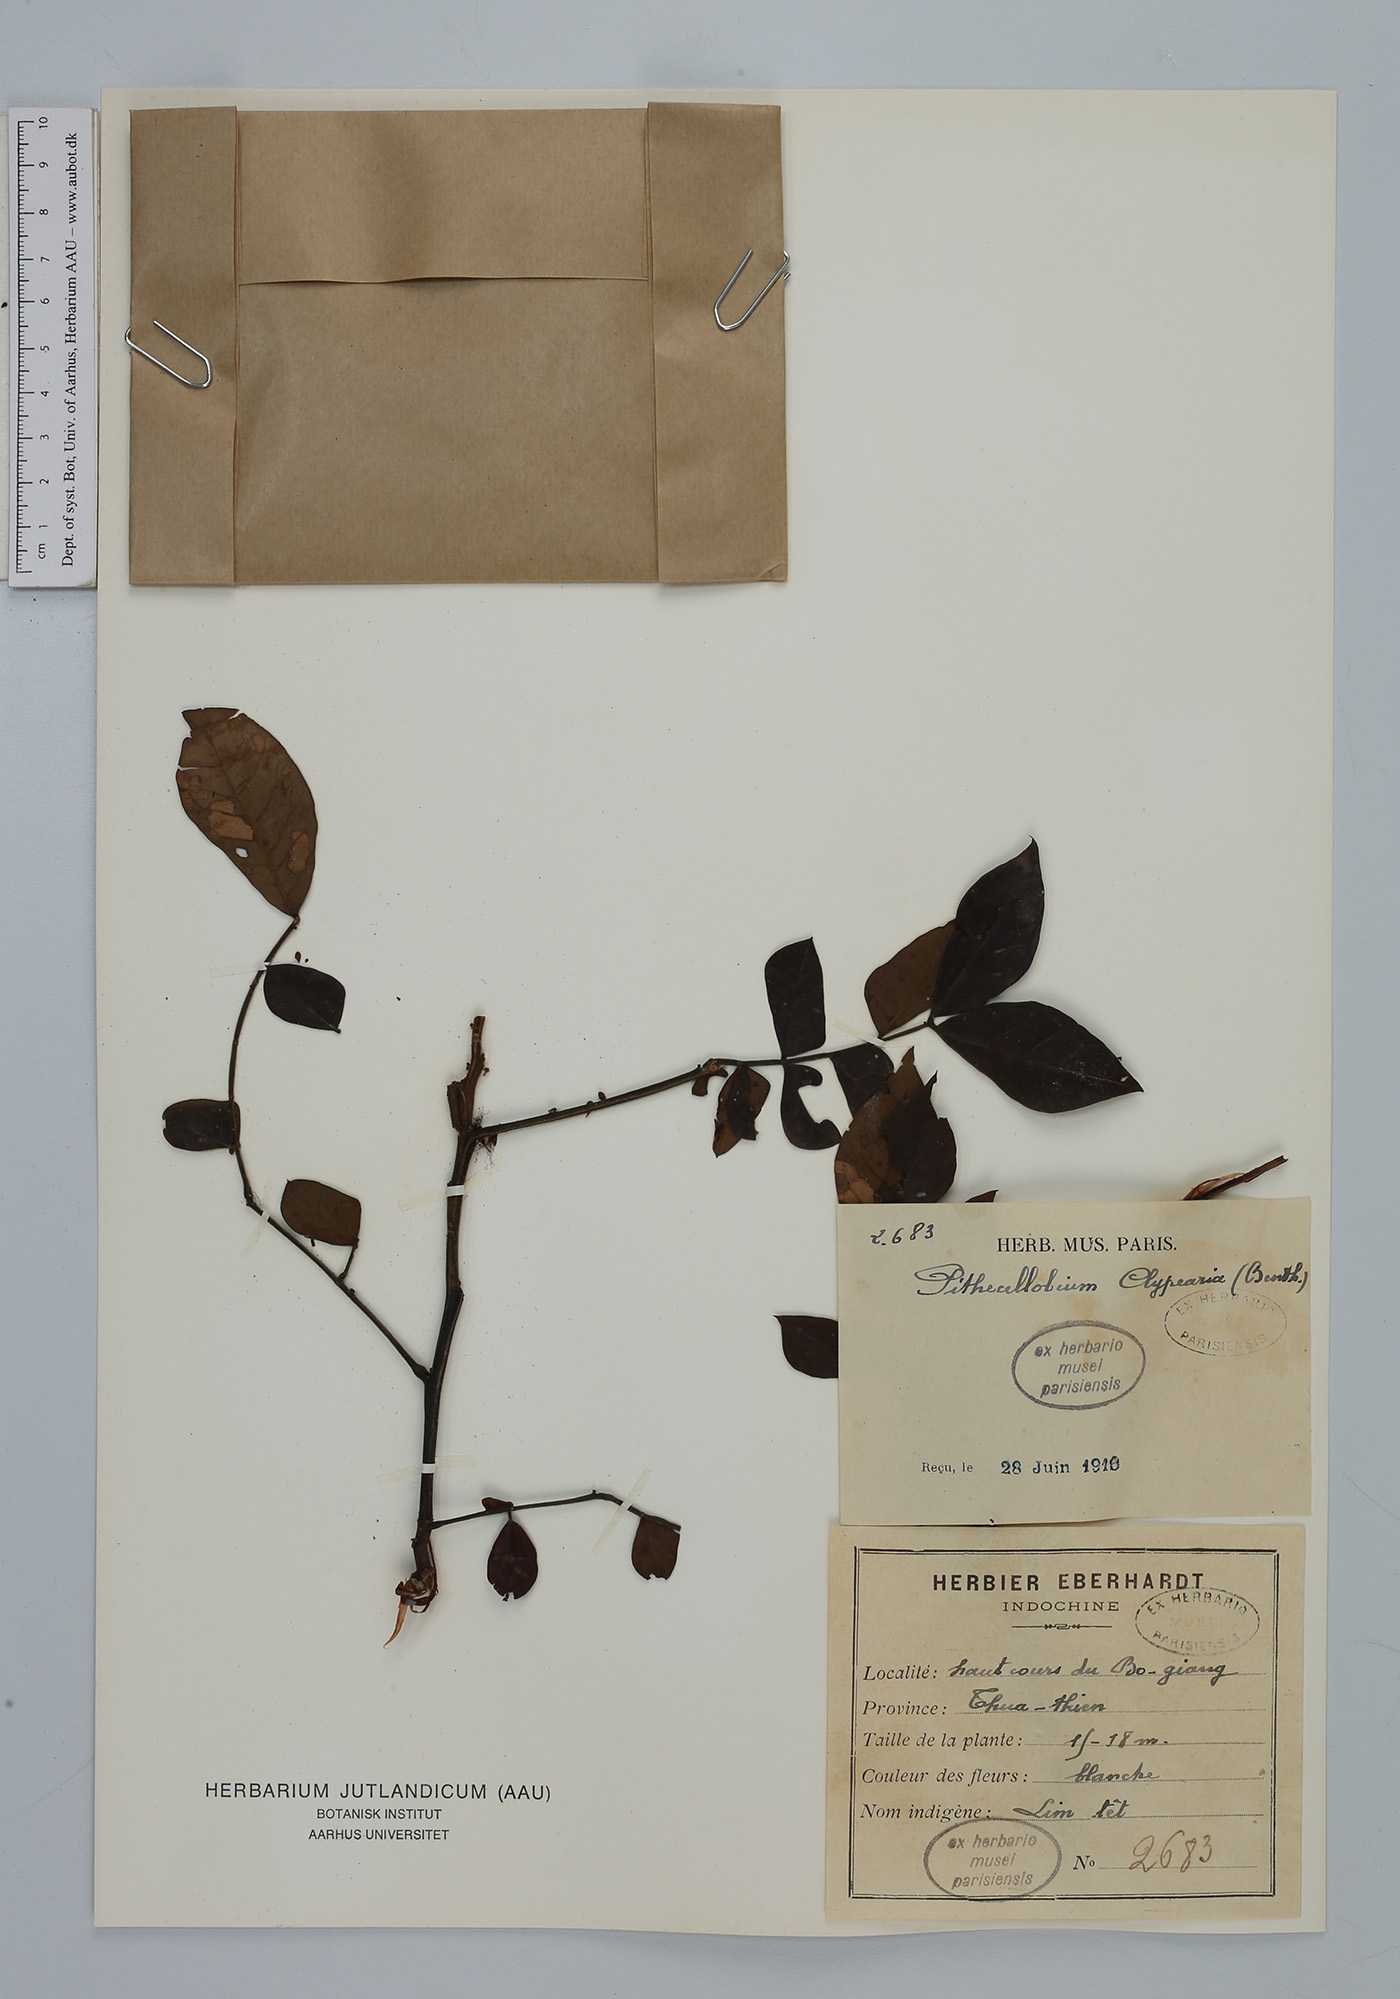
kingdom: Plantae
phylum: Tracheophyta
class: Magnoliopsida
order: Fabales
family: Fabaceae
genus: Archidendron
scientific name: Archidendron clypearia
